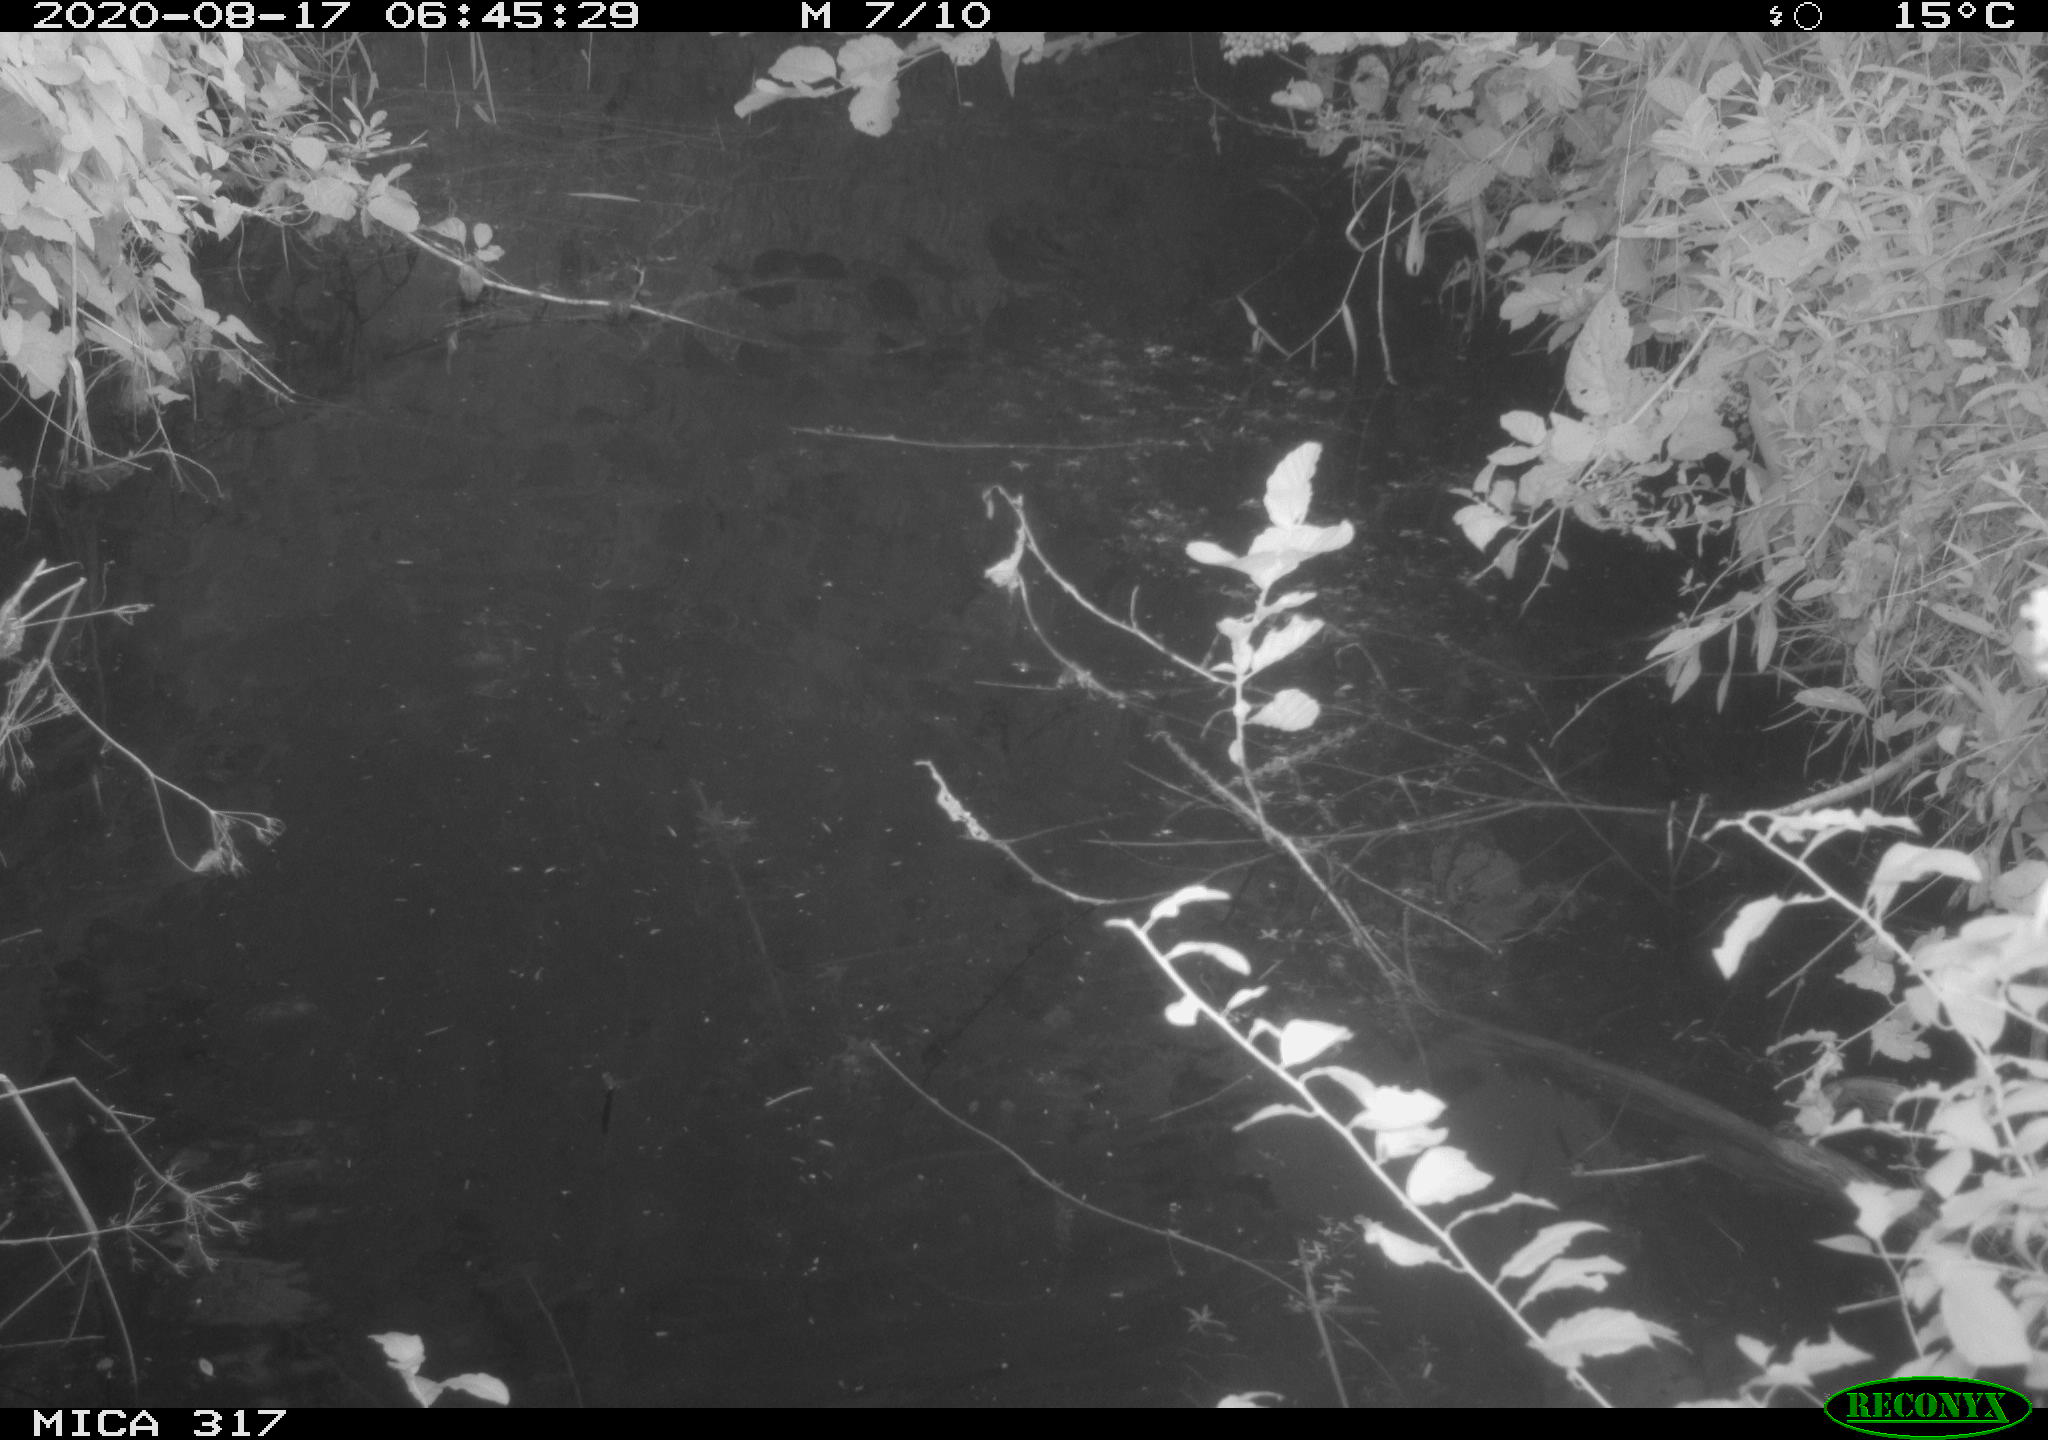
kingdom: Animalia
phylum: Chordata
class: Aves
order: Anseriformes
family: Anatidae
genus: Anas
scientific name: Anas platyrhynchos
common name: Mallard
